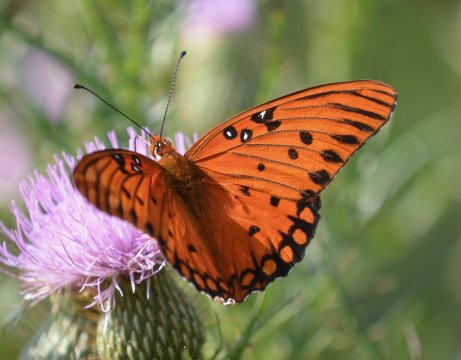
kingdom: Animalia
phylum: Arthropoda
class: Insecta
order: Lepidoptera
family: Nymphalidae
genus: Dione
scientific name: Dione vanillae
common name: Gulf Fritillary
